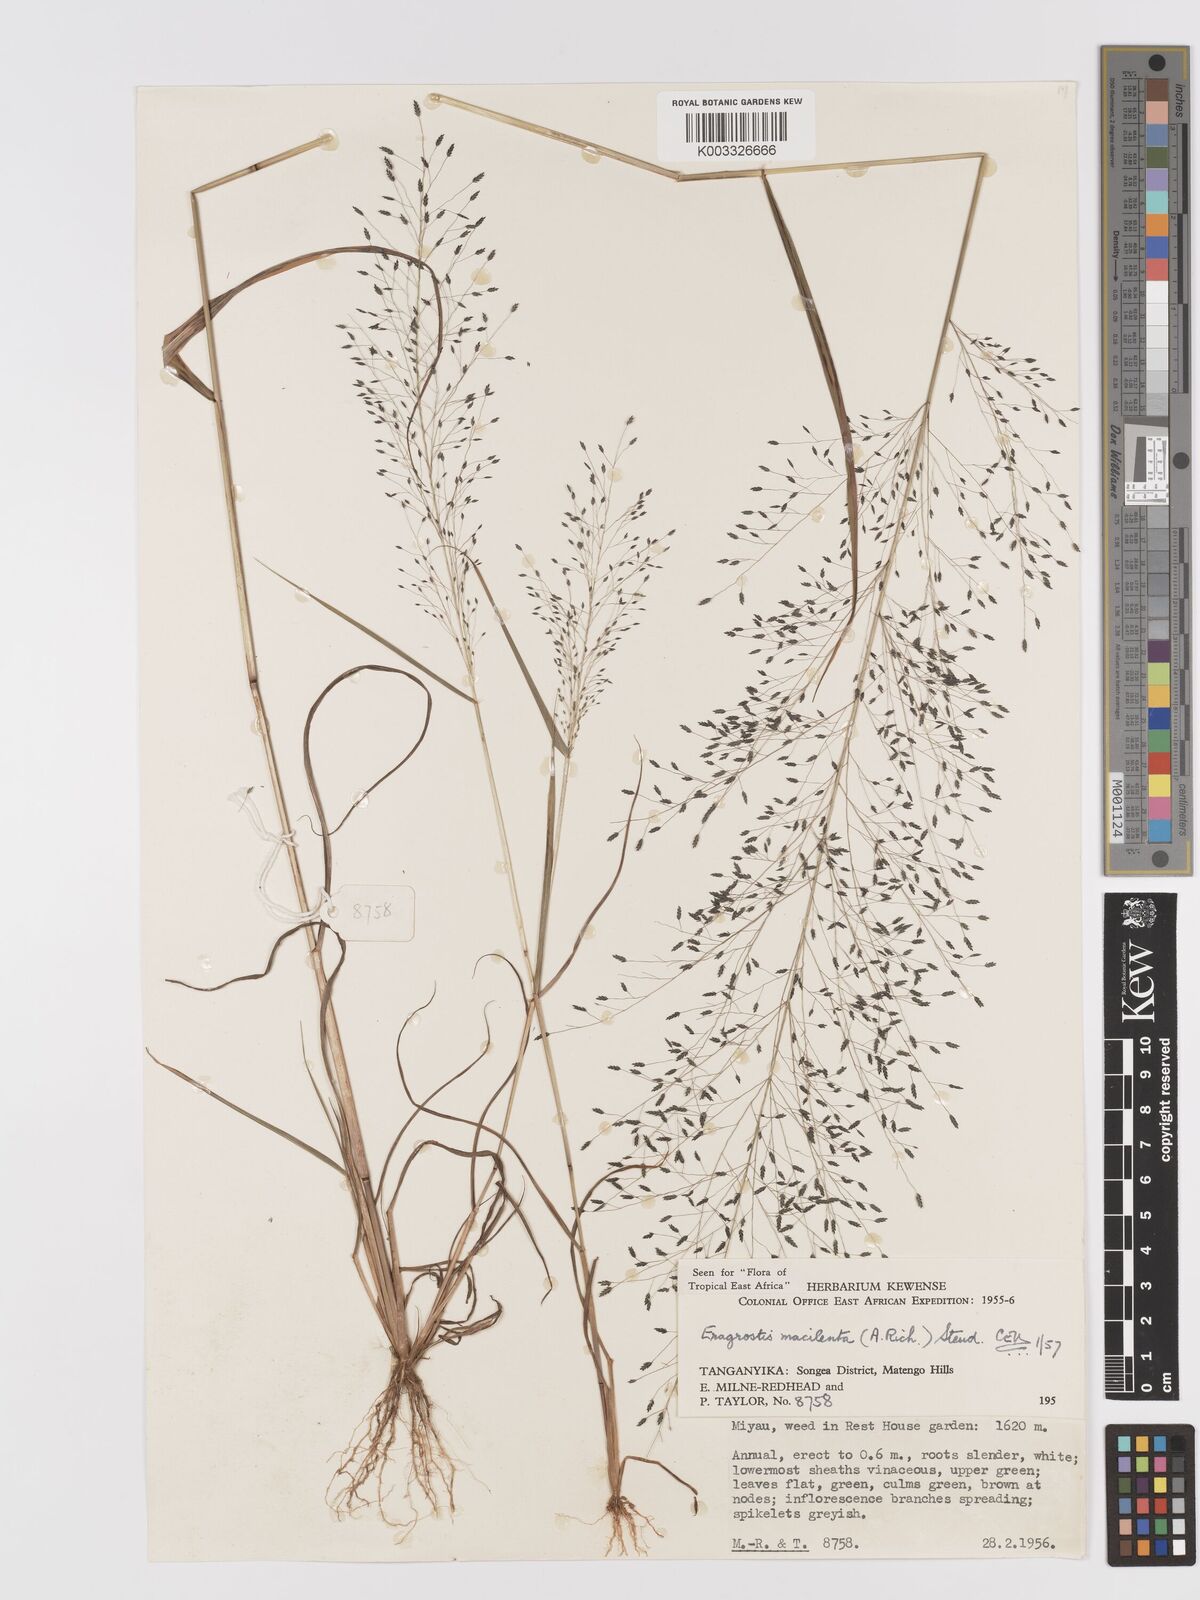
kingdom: Plantae
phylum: Tracheophyta
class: Liliopsida
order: Poales
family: Poaceae
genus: Eragrostis
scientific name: Eragrostis macilenta
